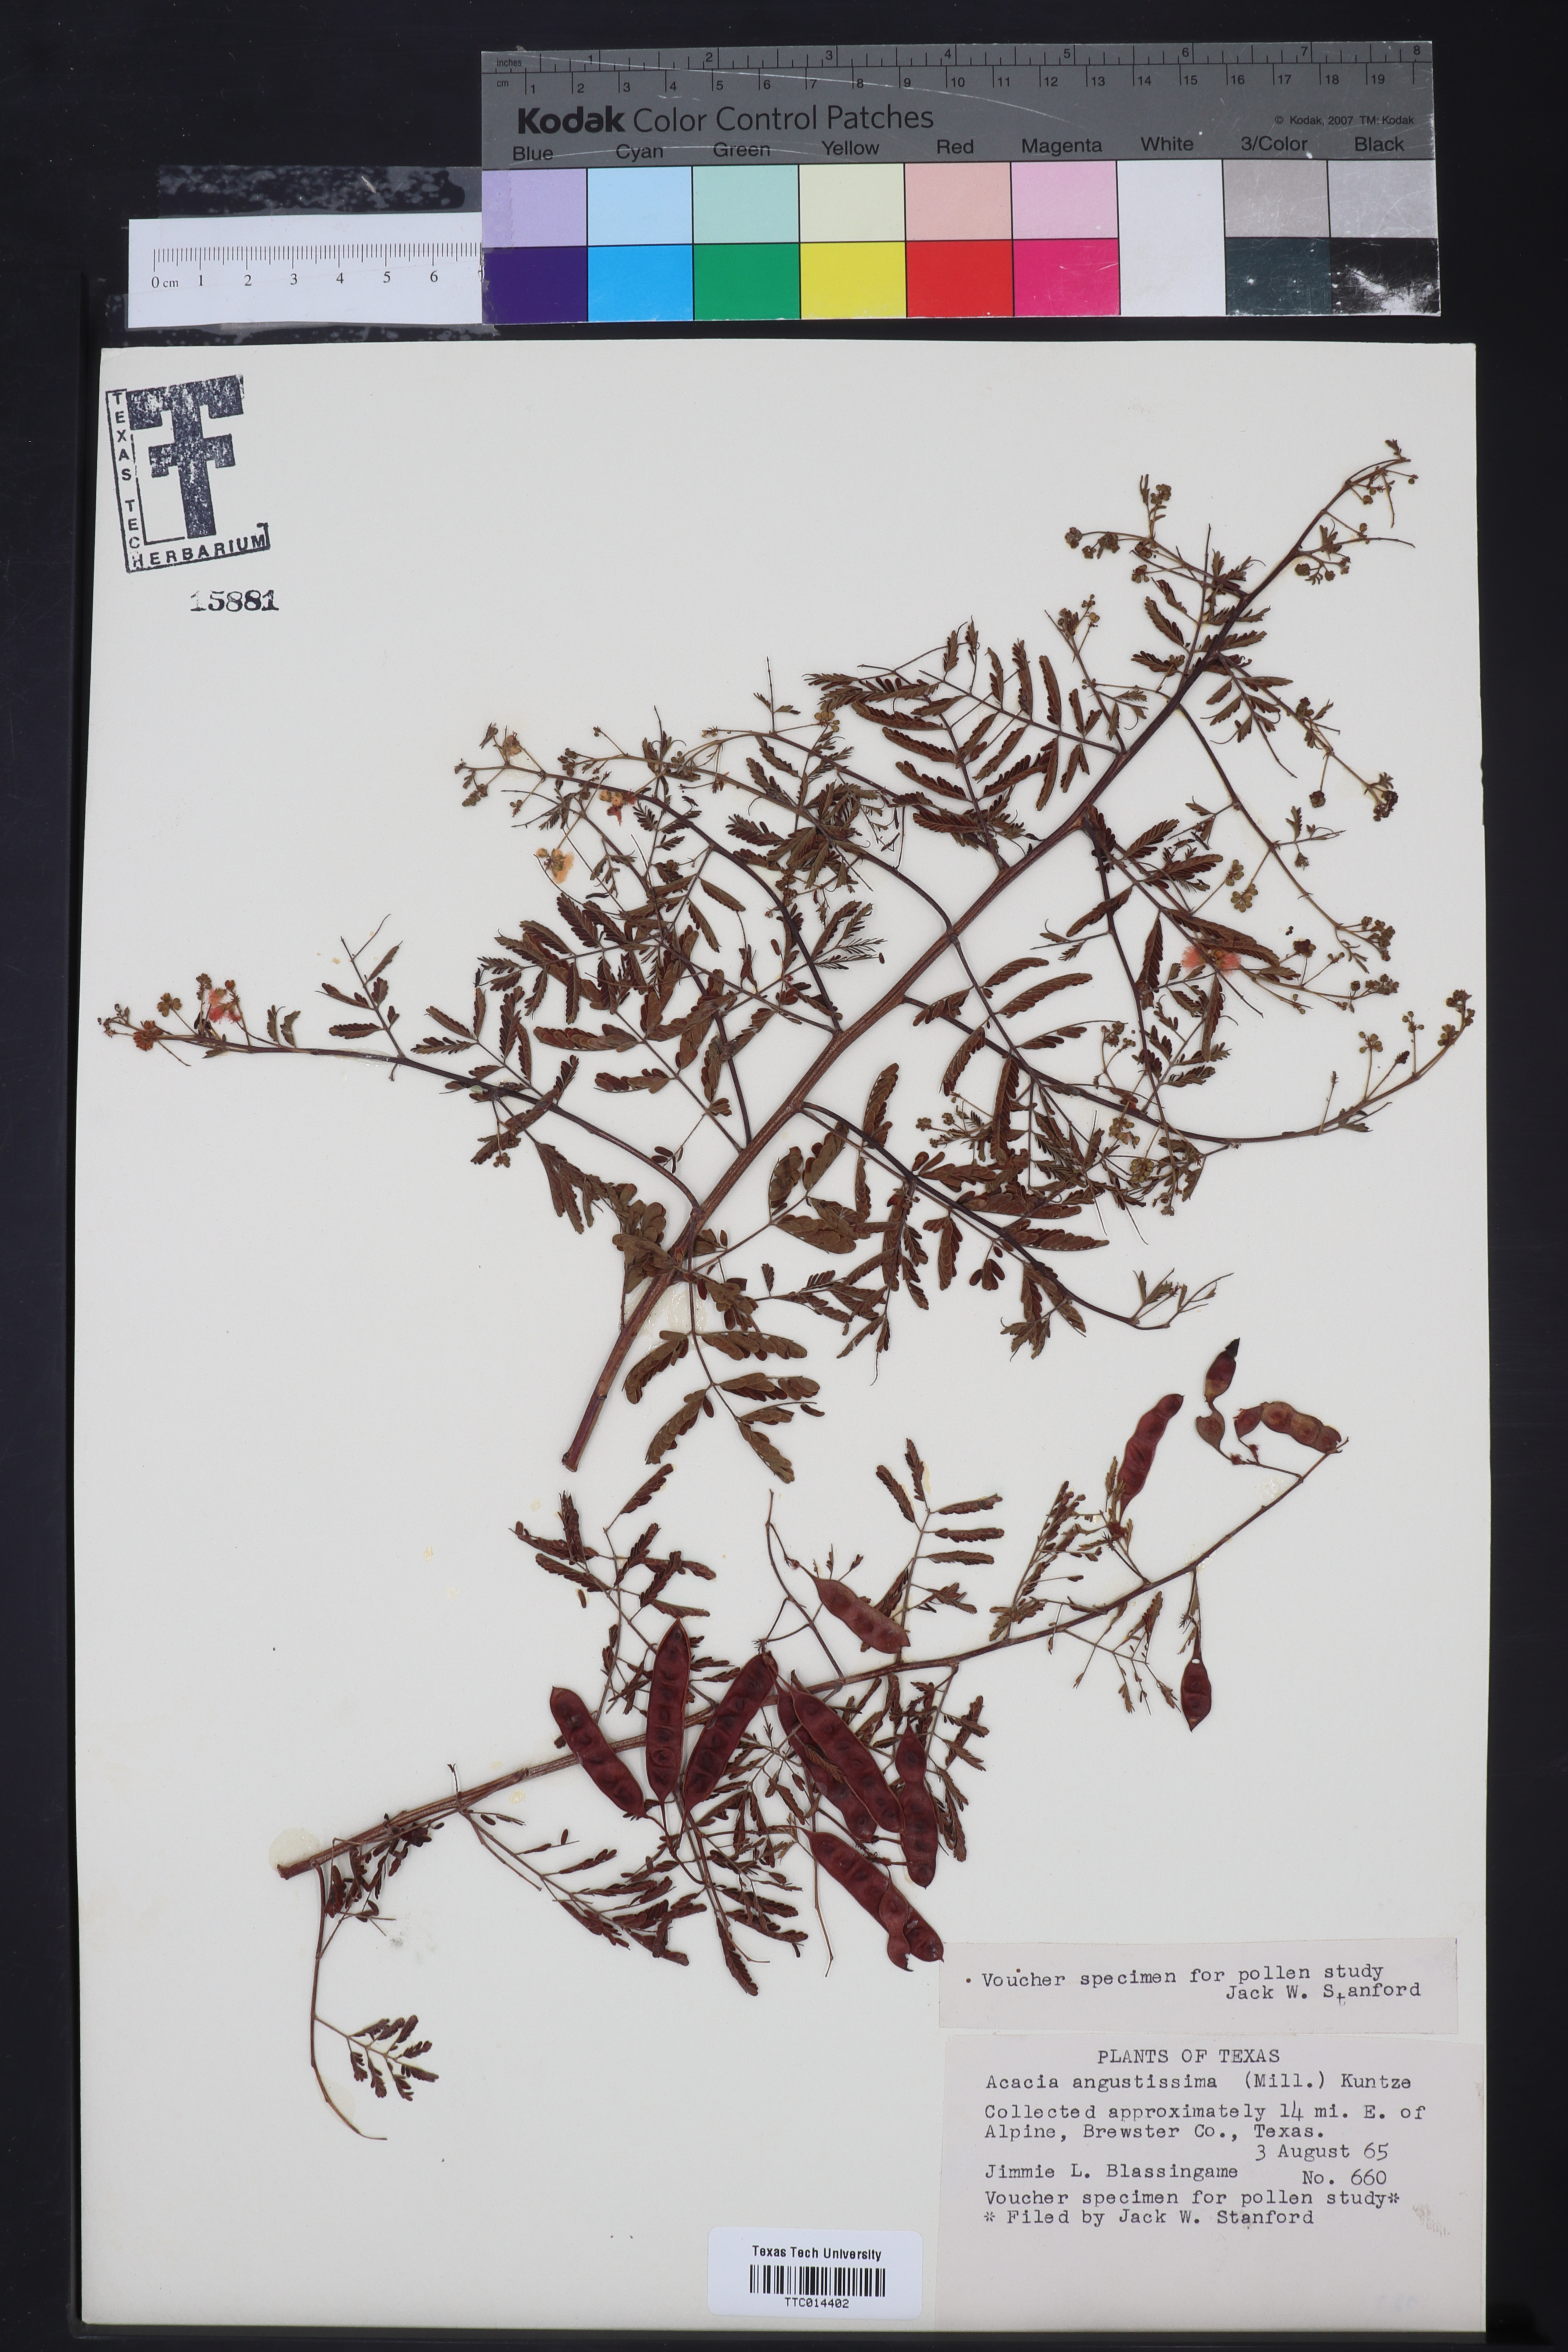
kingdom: Plantae
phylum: Tracheophyta
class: Magnoliopsida
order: Fabales
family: Fabaceae
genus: Acaciella
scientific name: Acaciella angustissima
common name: Prairie acacia
